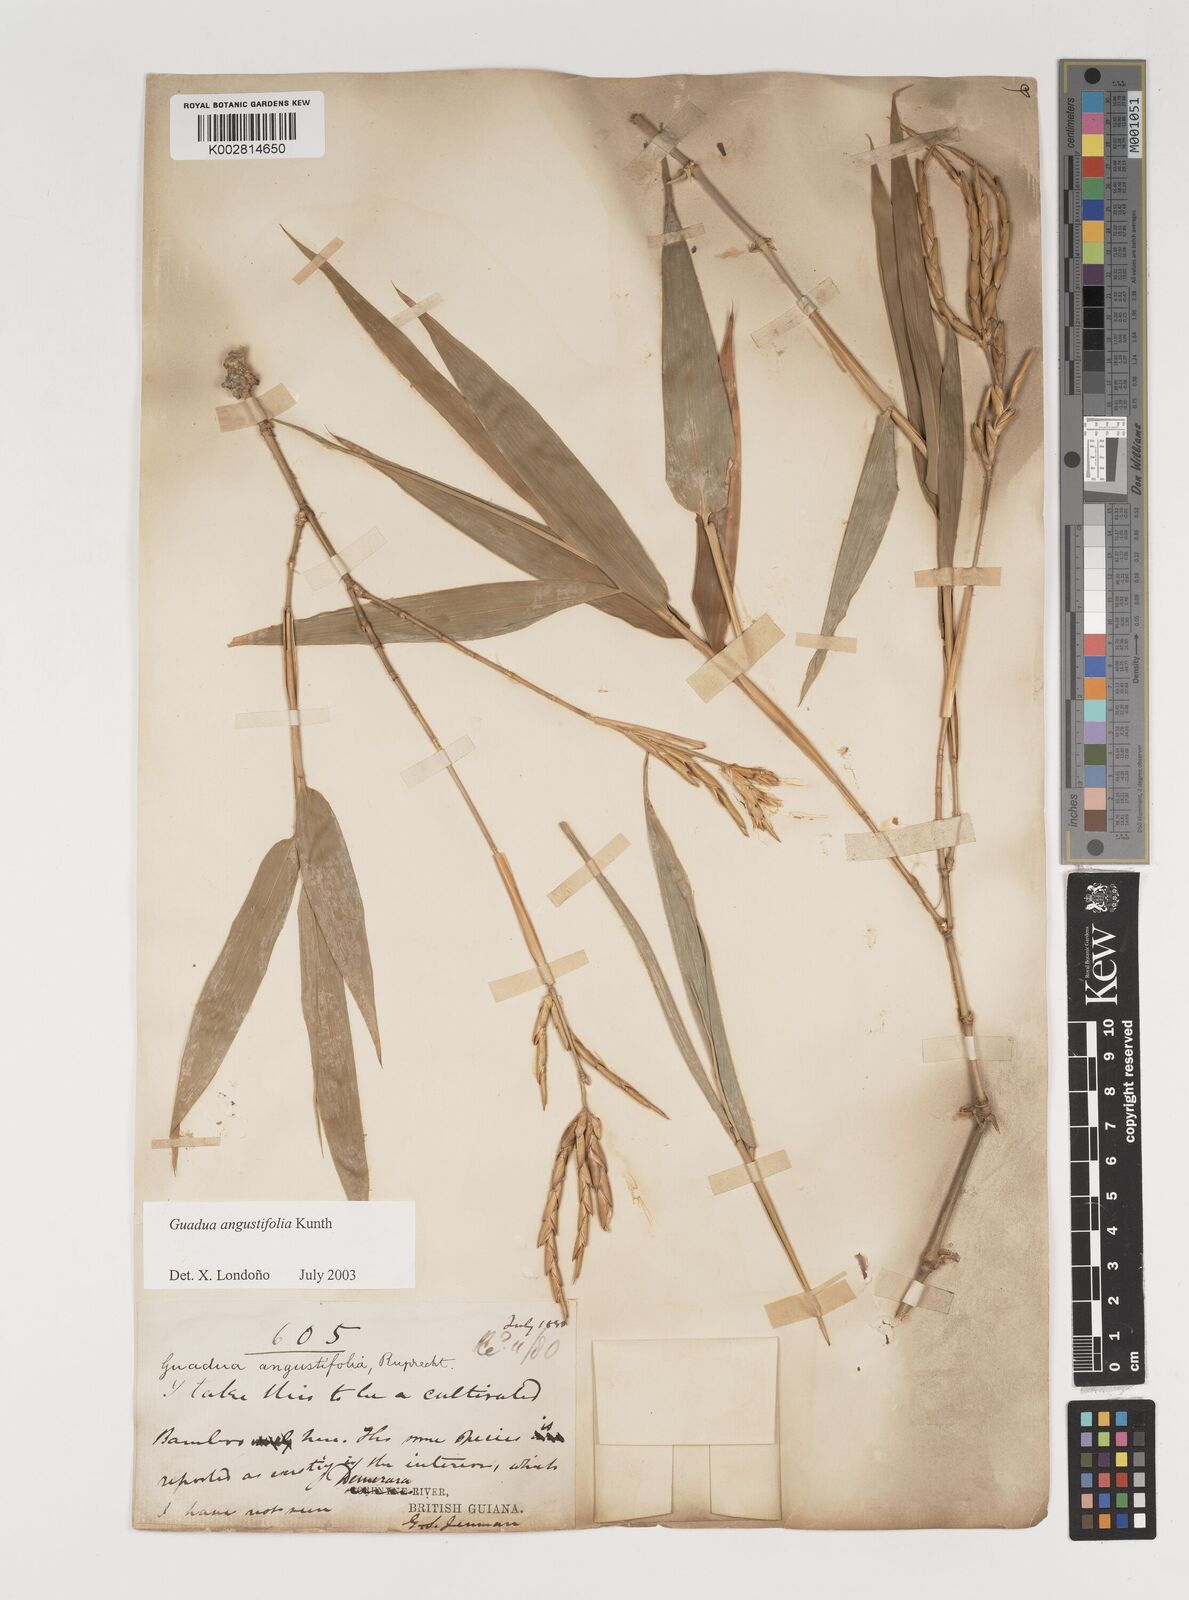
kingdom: Plantae
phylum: Tracheophyta
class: Liliopsida
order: Poales
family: Poaceae
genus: Guadua
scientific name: Guadua angustifolia
